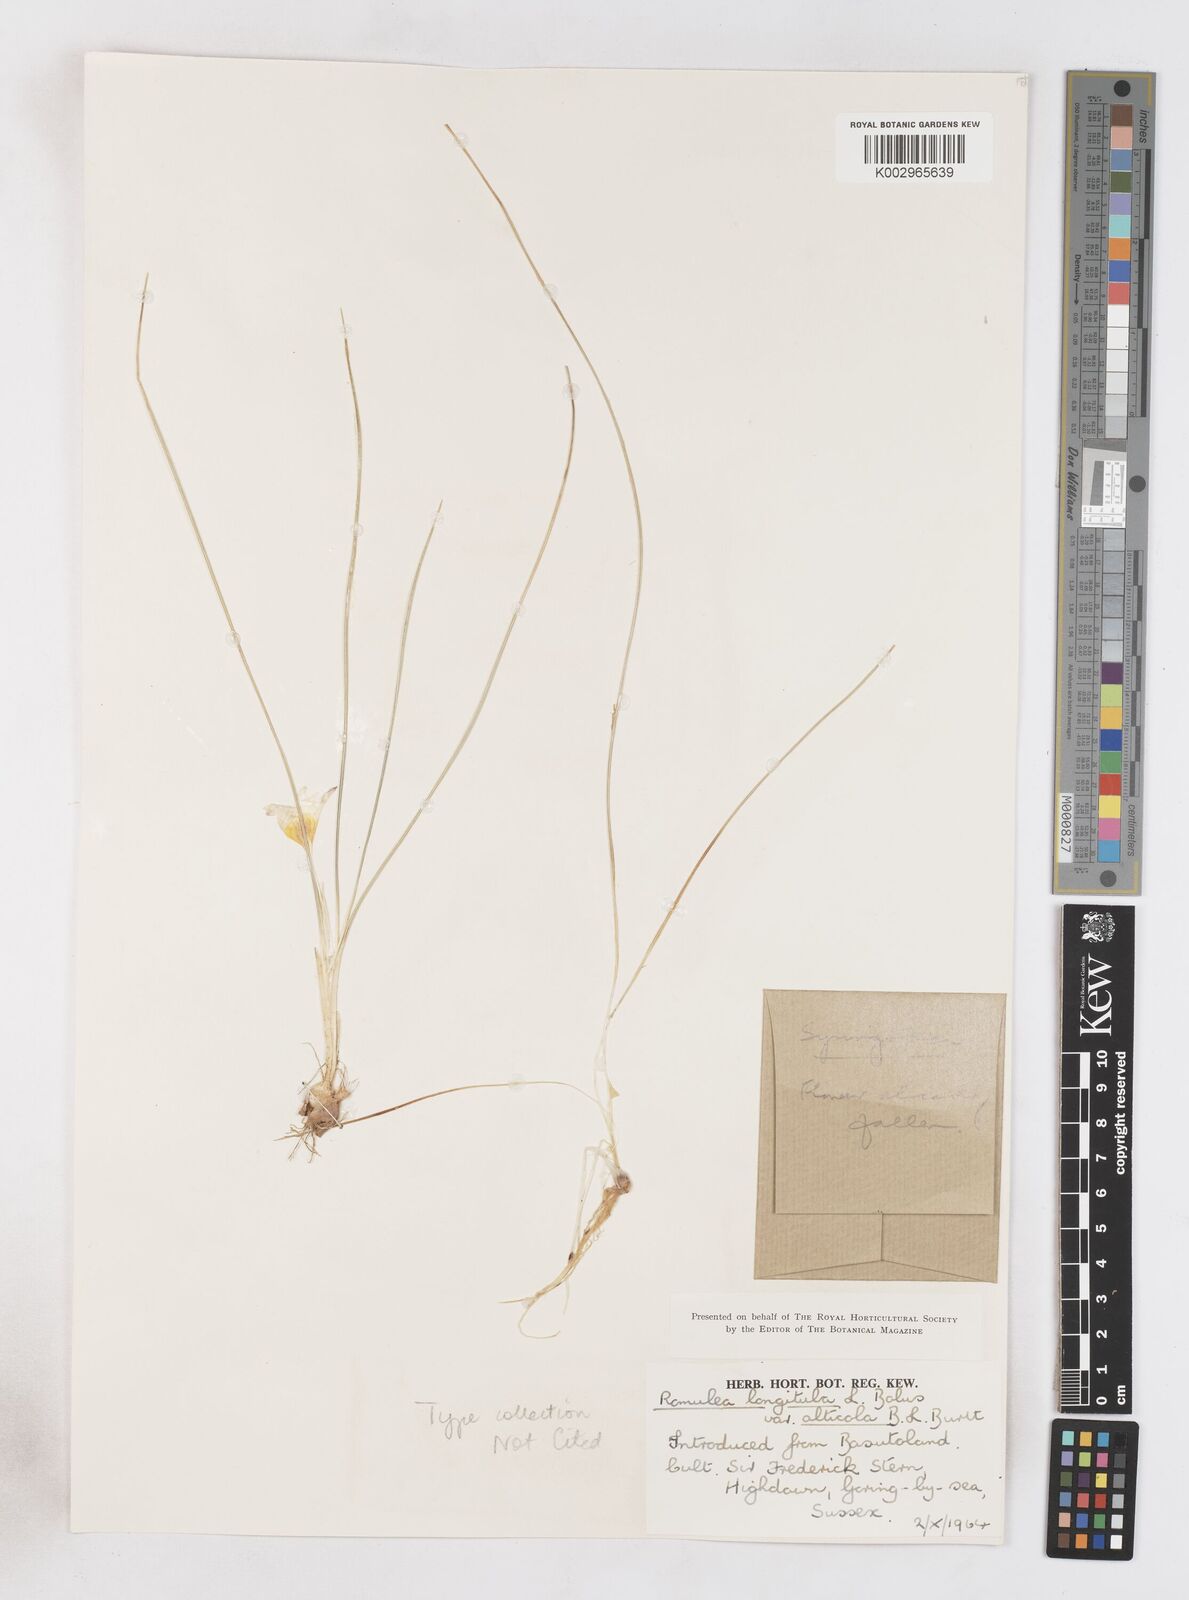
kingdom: Plantae
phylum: Tracheophyta
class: Liliopsida
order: Asparagales
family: Iridaceae
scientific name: Iridaceae
